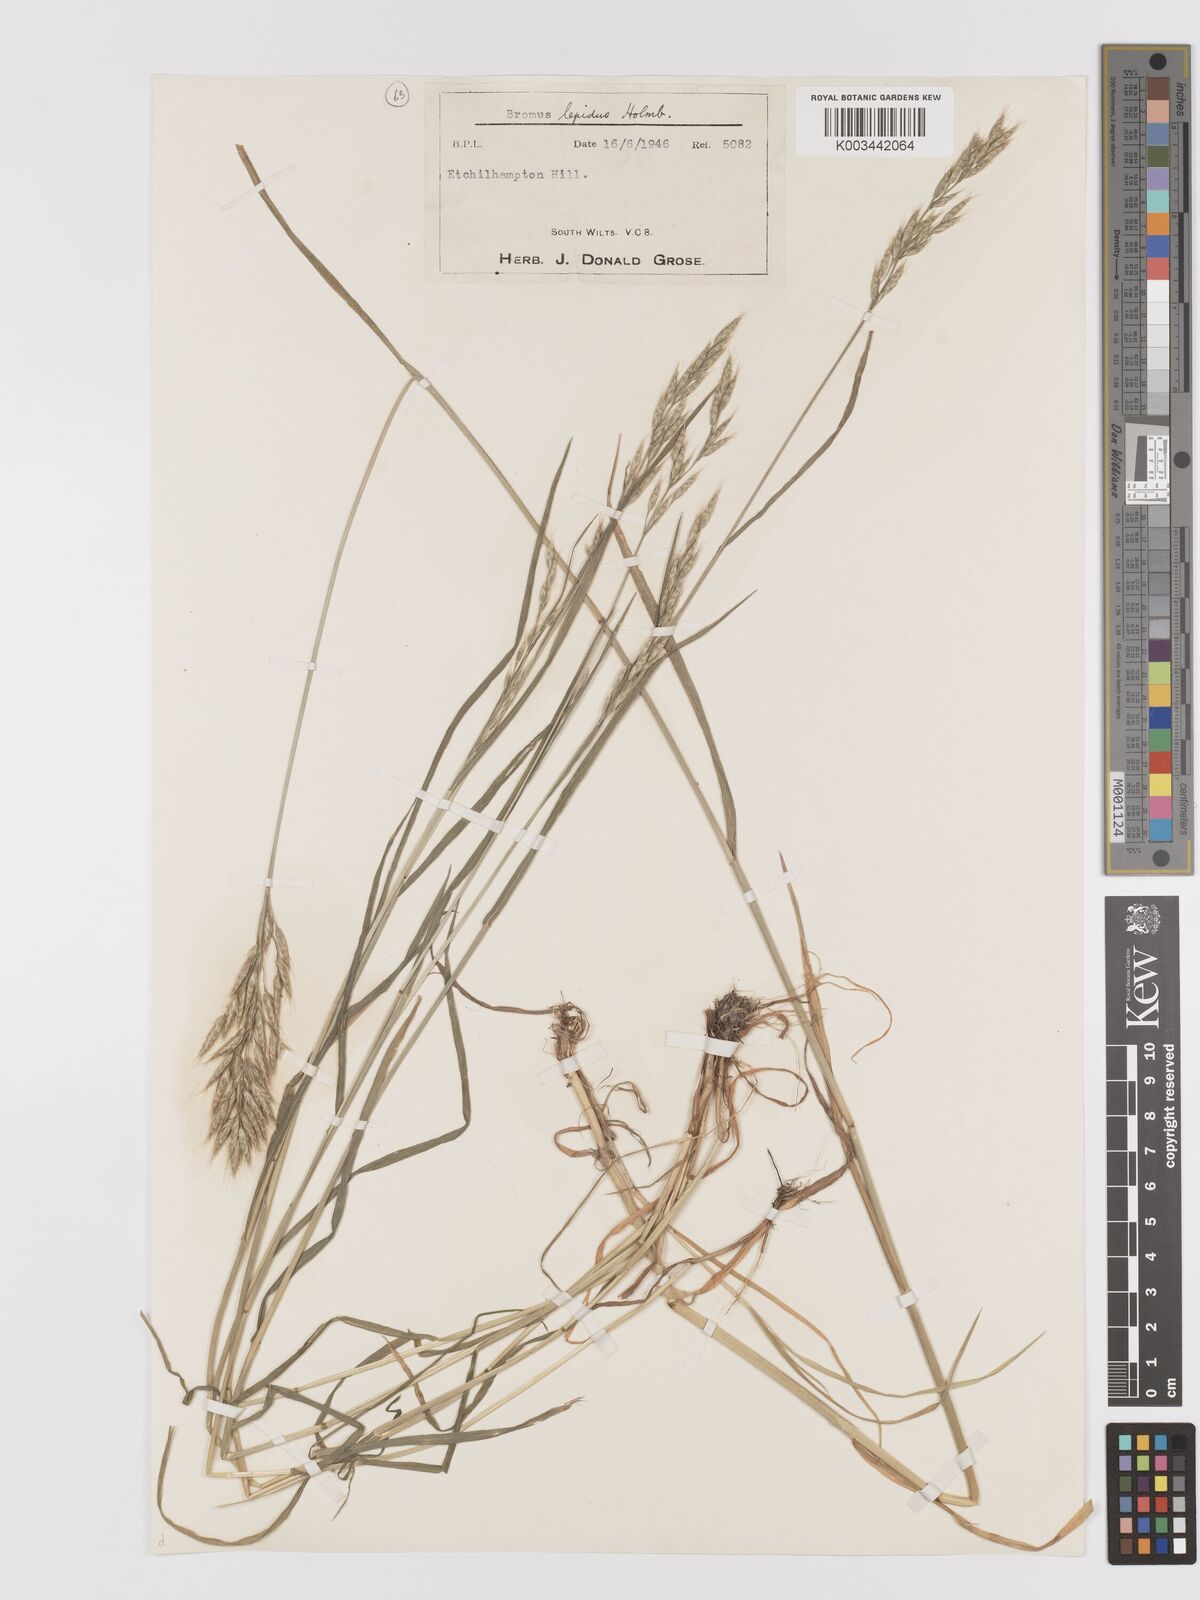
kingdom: Plantae
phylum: Tracheophyta
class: Liliopsida
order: Poales
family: Poaceae
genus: Bromus
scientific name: Bromus lepidus
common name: Slender soft-brome
